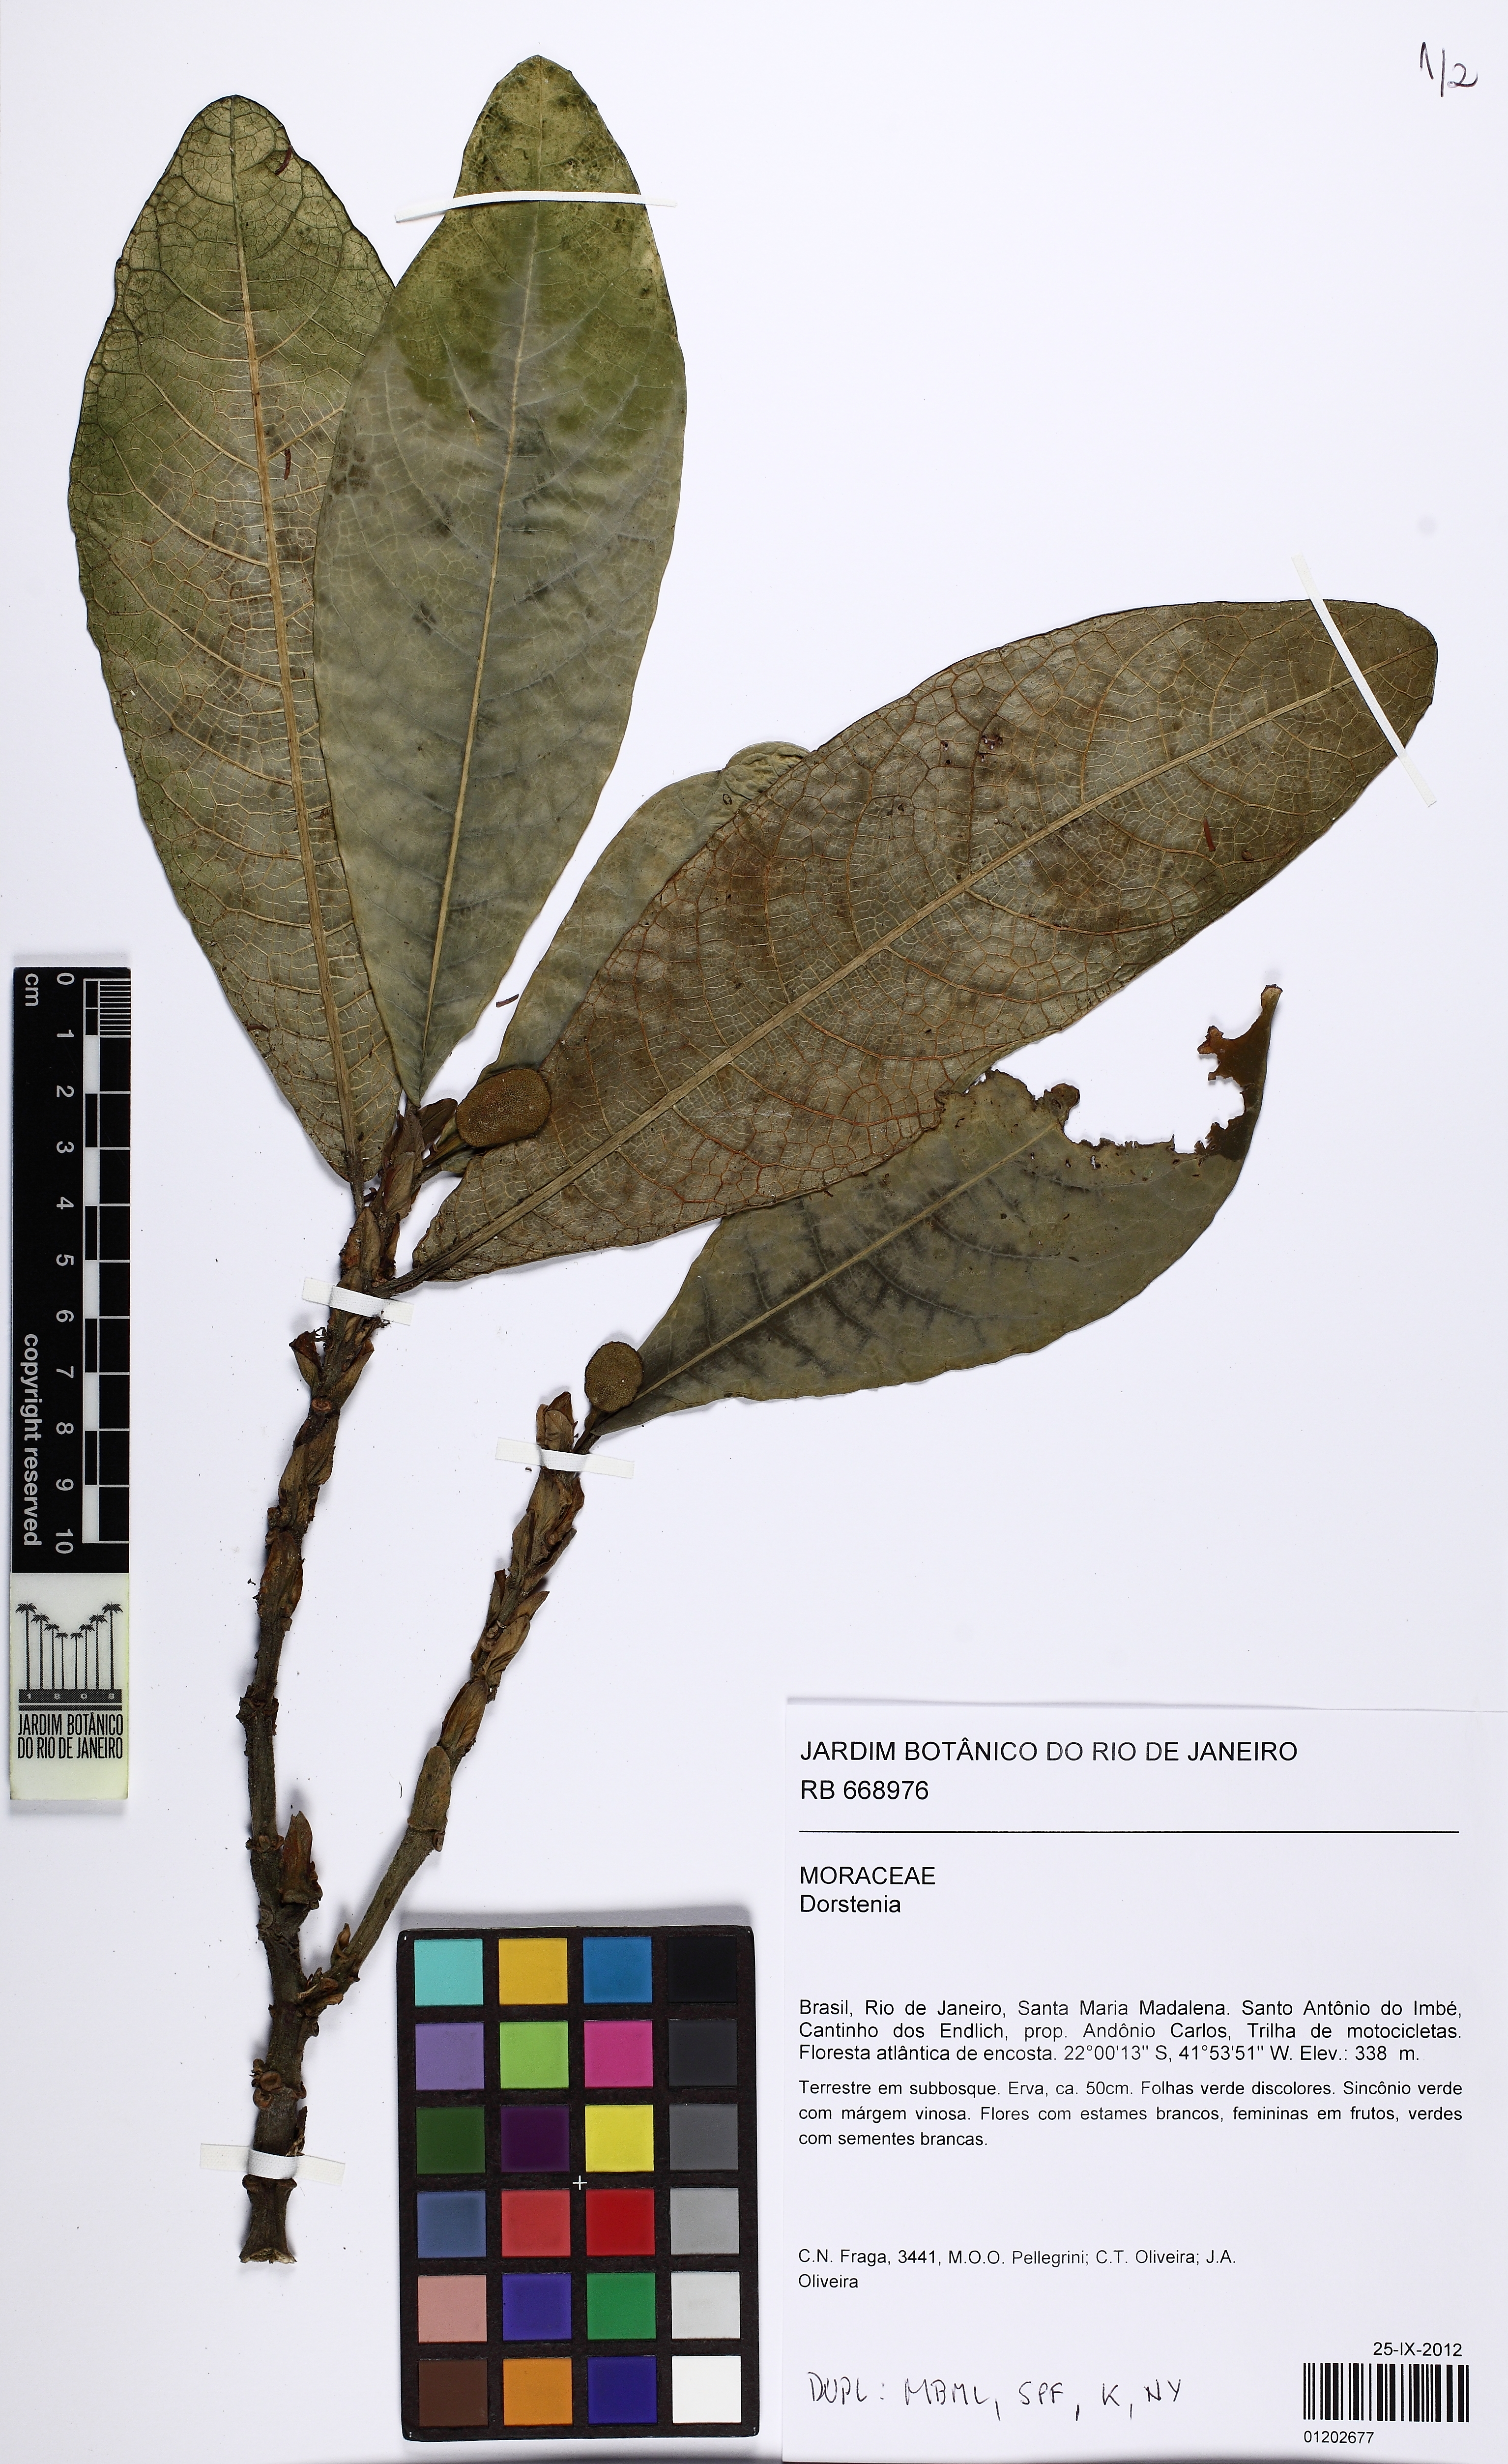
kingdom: Plantae
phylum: Tracheophyta
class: Magnoliopsida
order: Rosales
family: Moraceae
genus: Dorstenia
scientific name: Dorstenia elata
